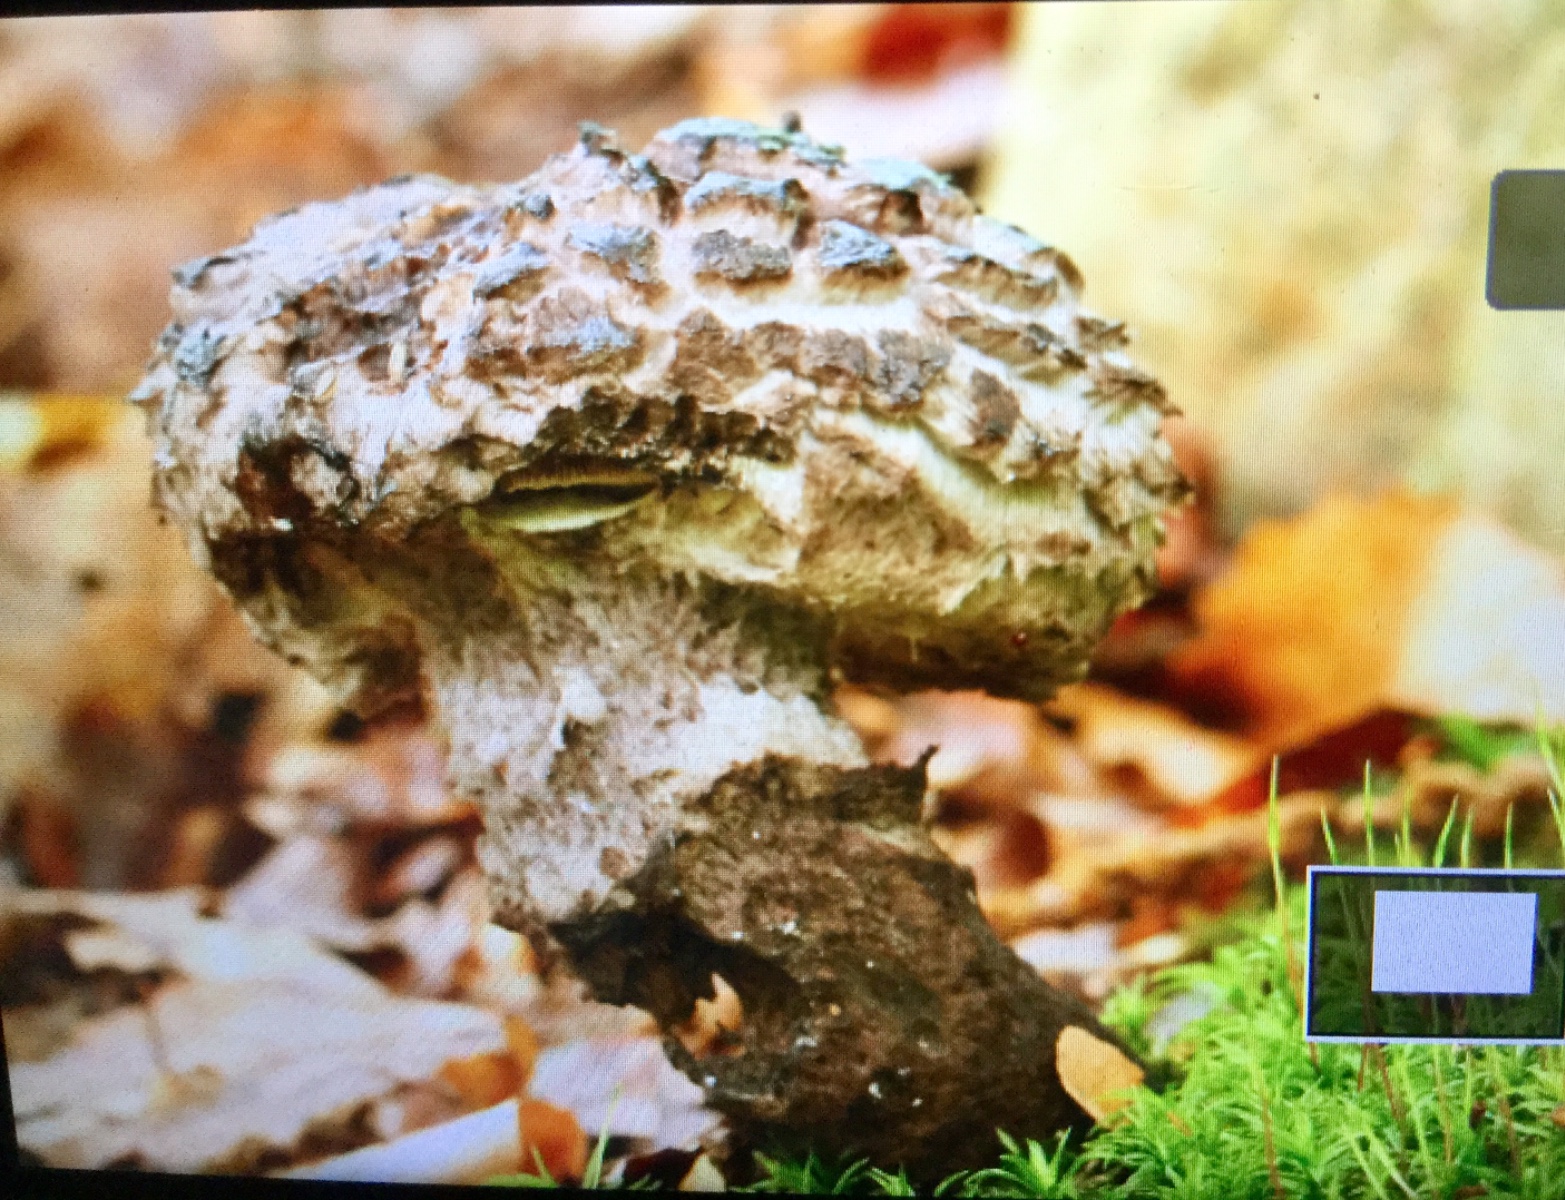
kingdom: Fungi
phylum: Basidiomycota
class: Agaricomycetes
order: Boletales
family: Boletaceae
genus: Strobilomyces
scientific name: Strobilomyces strobilaceus
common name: koglerørhat
